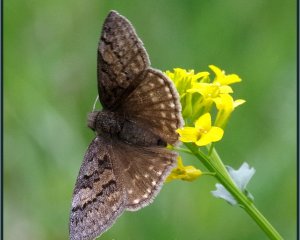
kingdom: Animalia
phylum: Arthropoda
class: Insecta
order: Lepidoptera
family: Hesperiidae
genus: Erynnis
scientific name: Erynnis brizo
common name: Sleepy Duskywing
